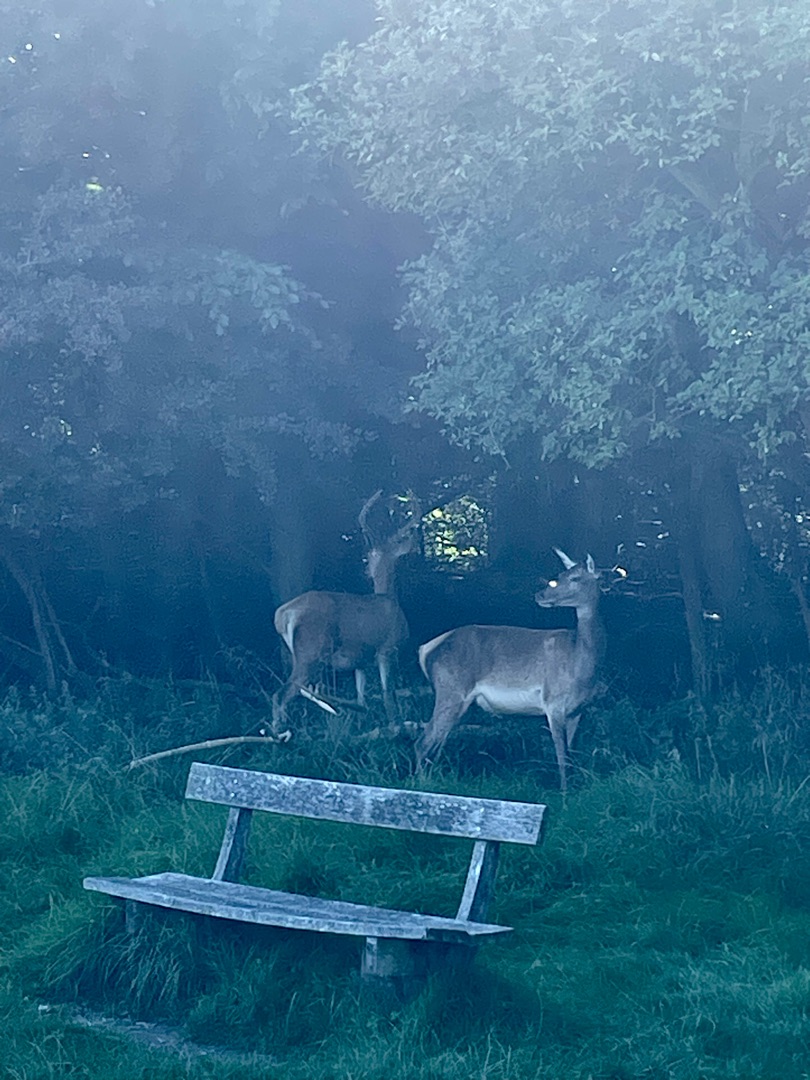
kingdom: Animalia
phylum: Chordata
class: Mammalia
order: Artiodactyla
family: Cervidae
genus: Cervus
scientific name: Cervus elaphus
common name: Krondyr
